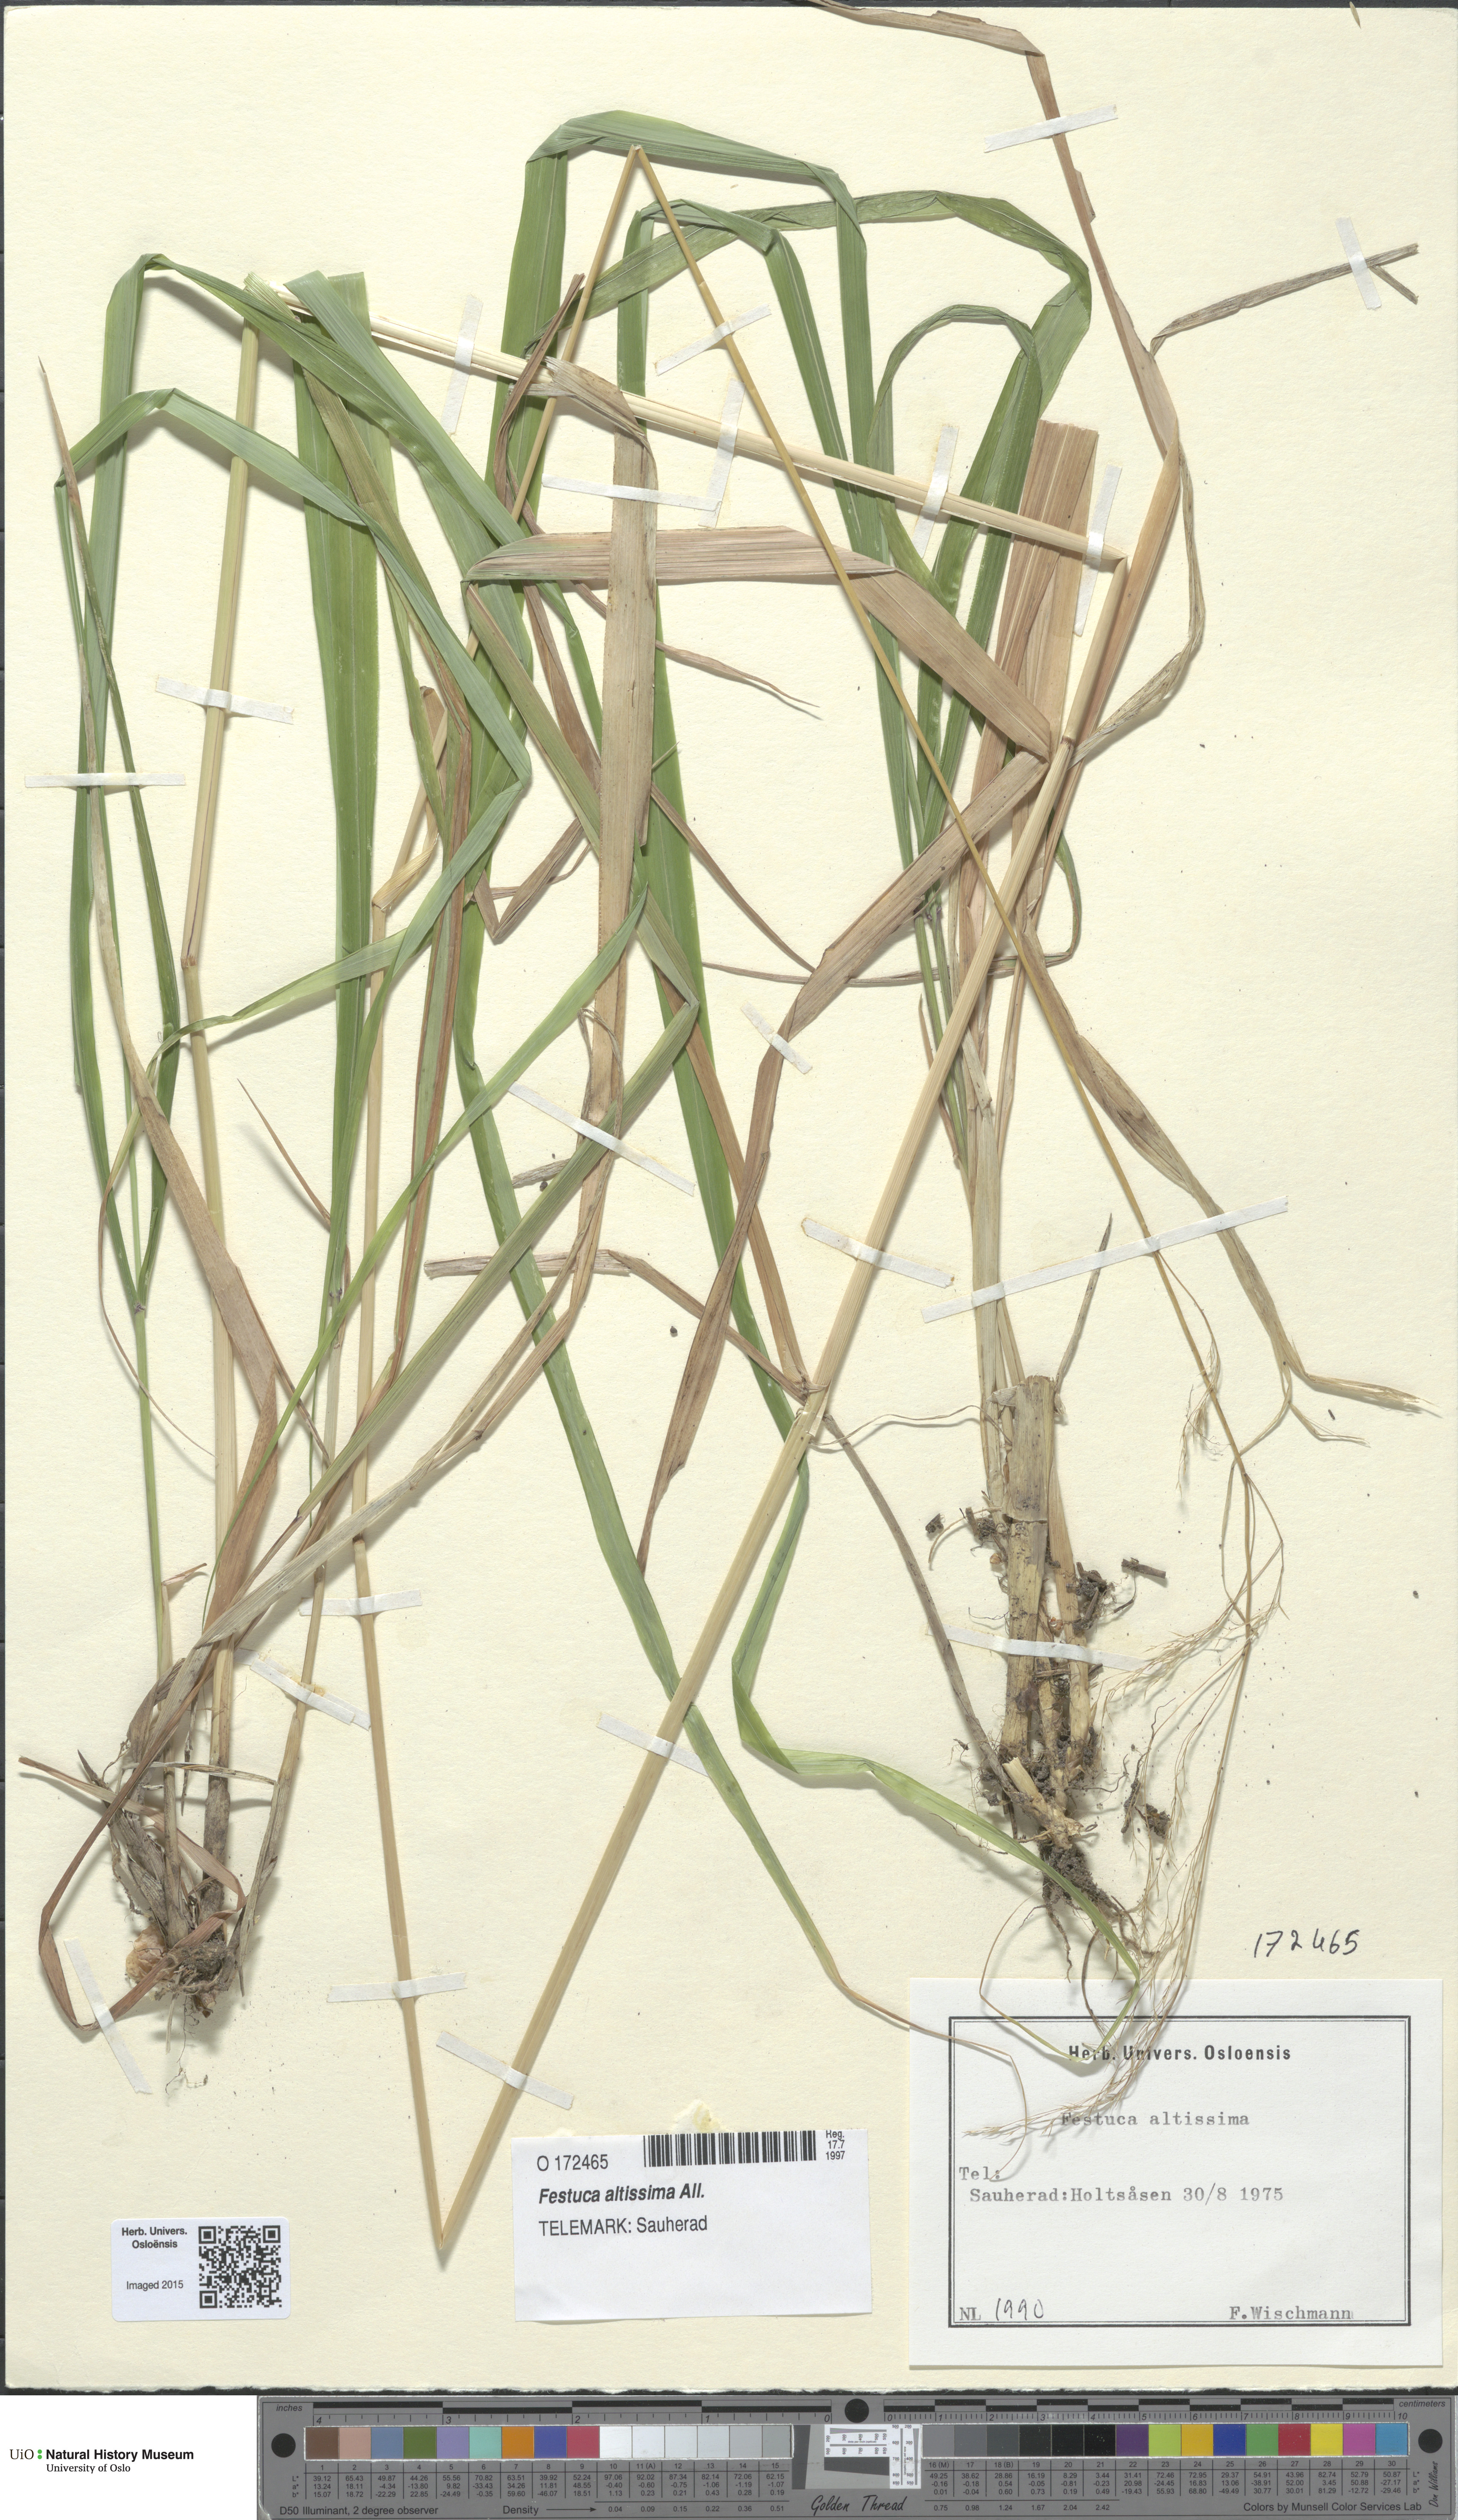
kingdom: Plantae
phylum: Tracheophyta
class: Liliopsida
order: Poales
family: Poaceae
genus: Festuca
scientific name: Festuca altissima
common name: Wood fescue
